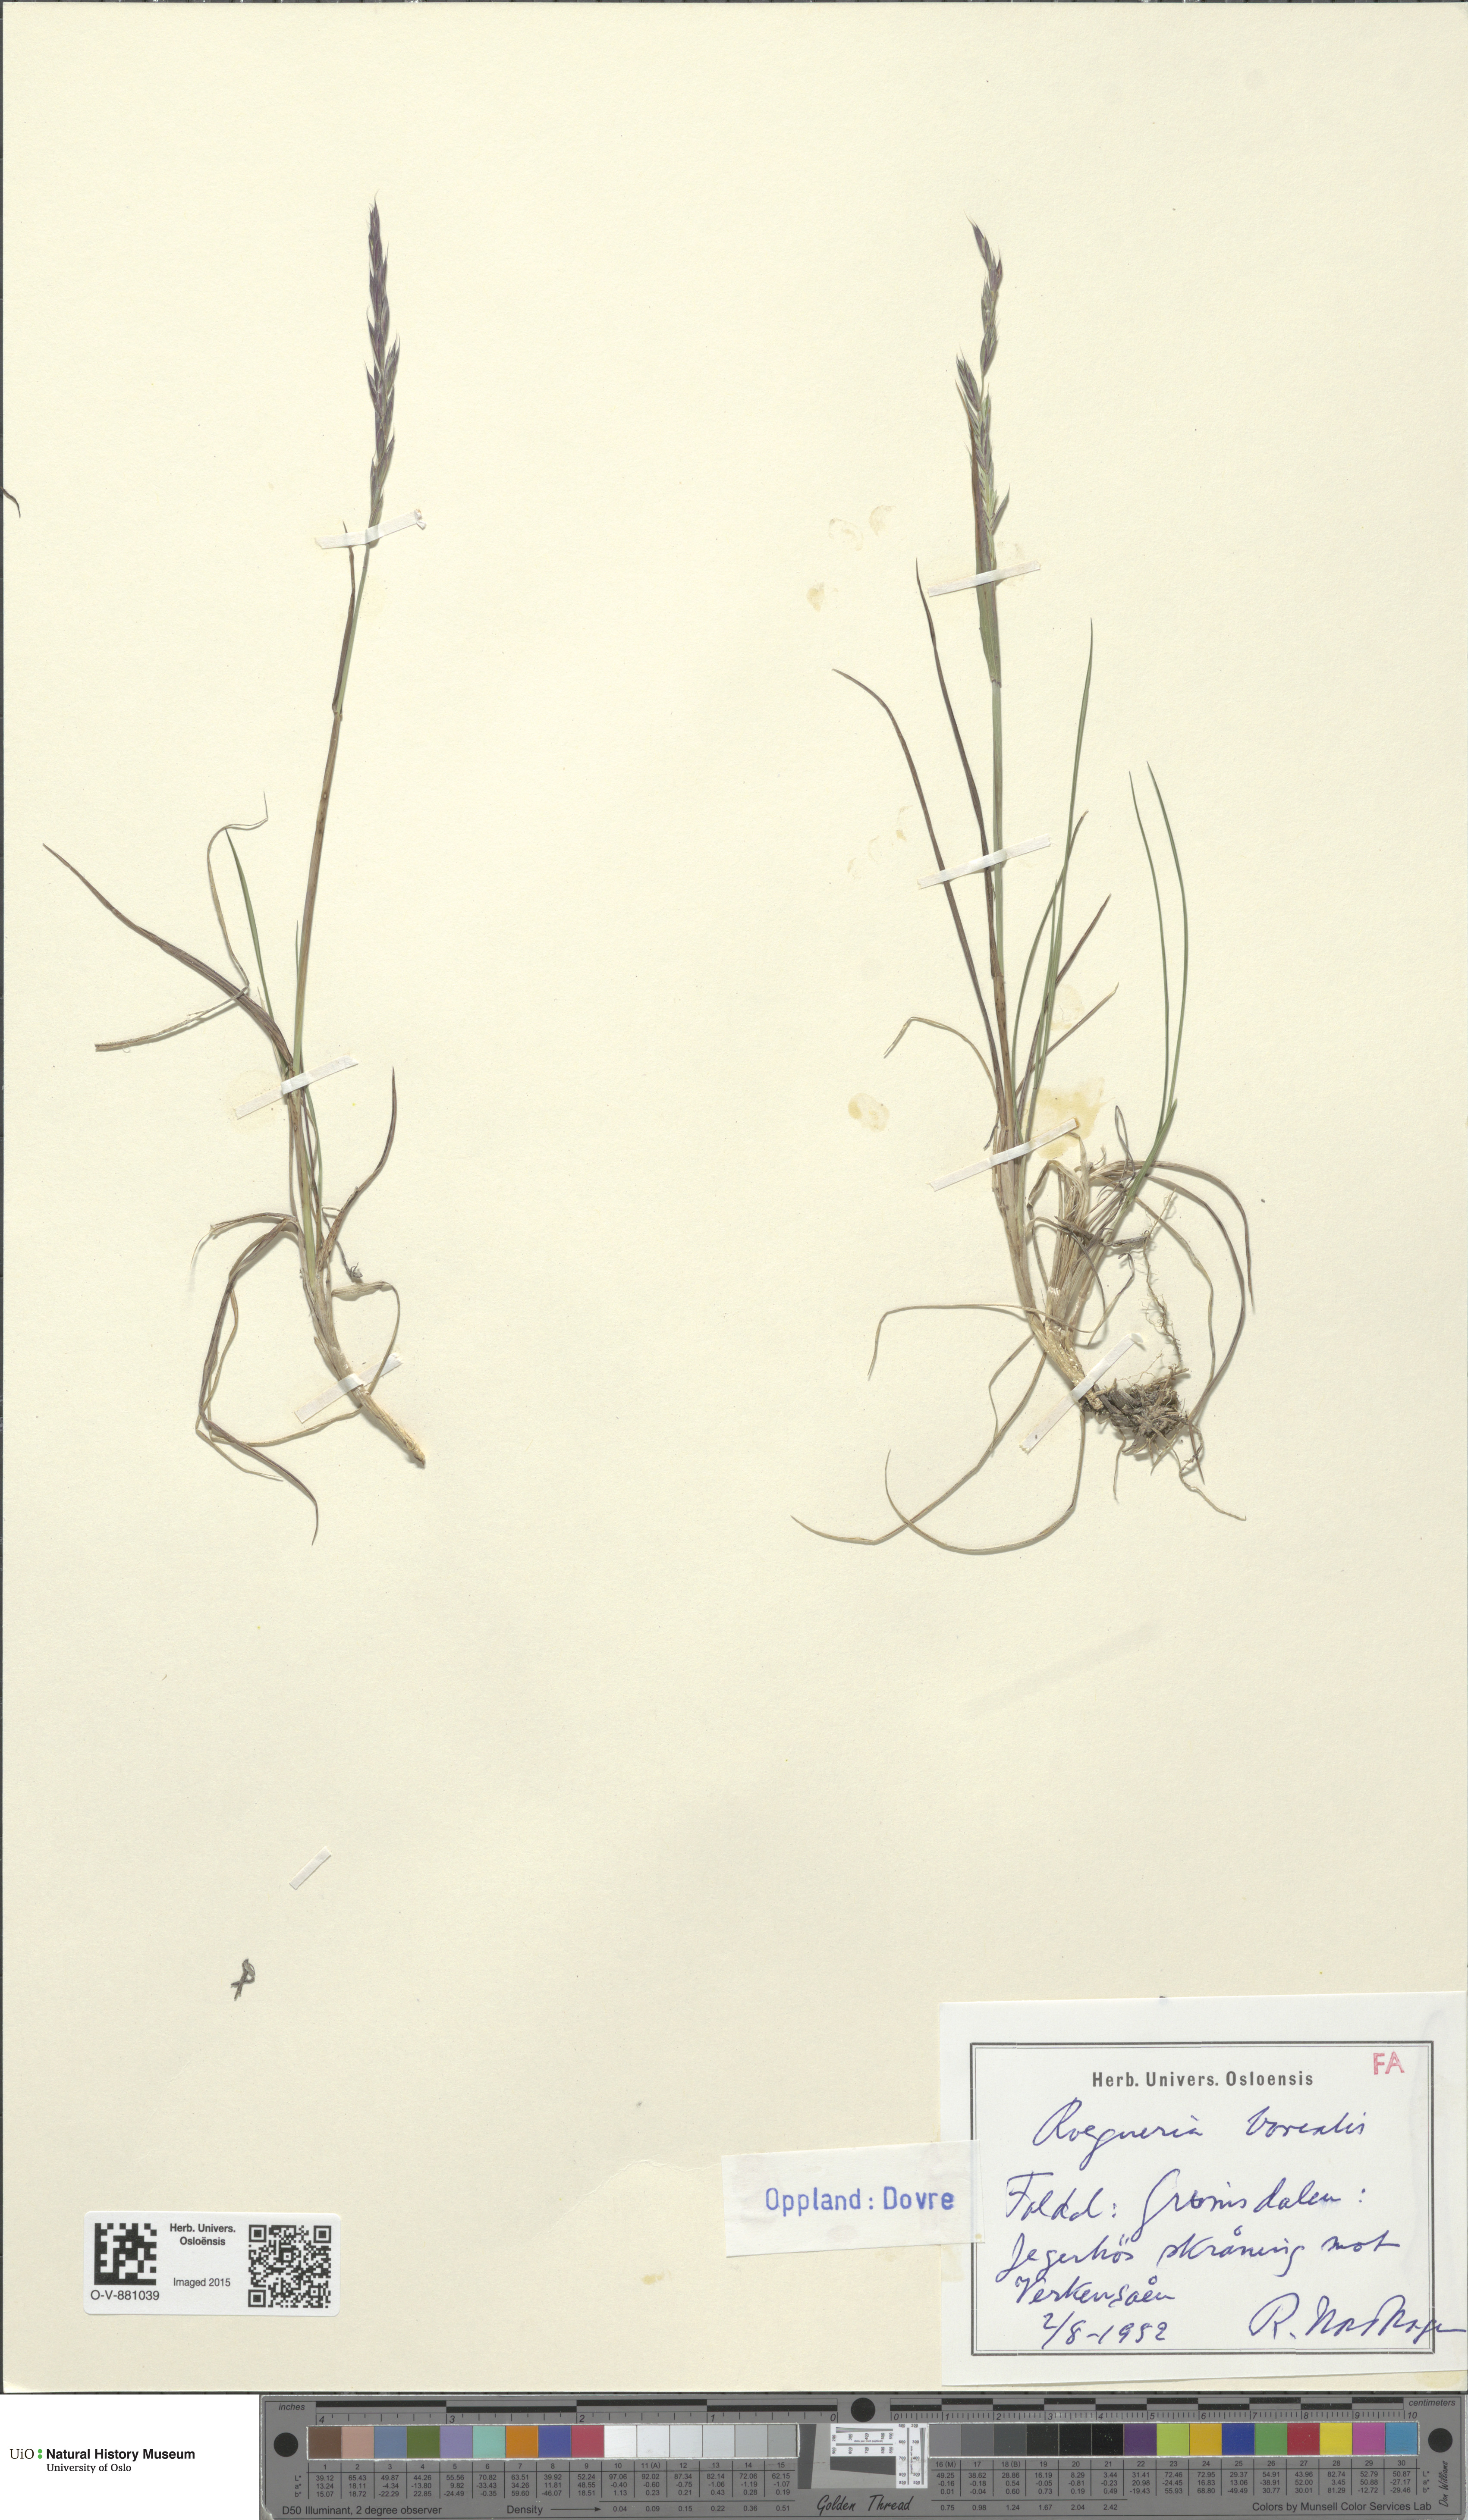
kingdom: Plantae
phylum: Tracheophyta
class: Liliopsida
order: Poales
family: Poaceae
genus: Elymus
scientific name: Elymus macrourus
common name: Northern wheatgrass
